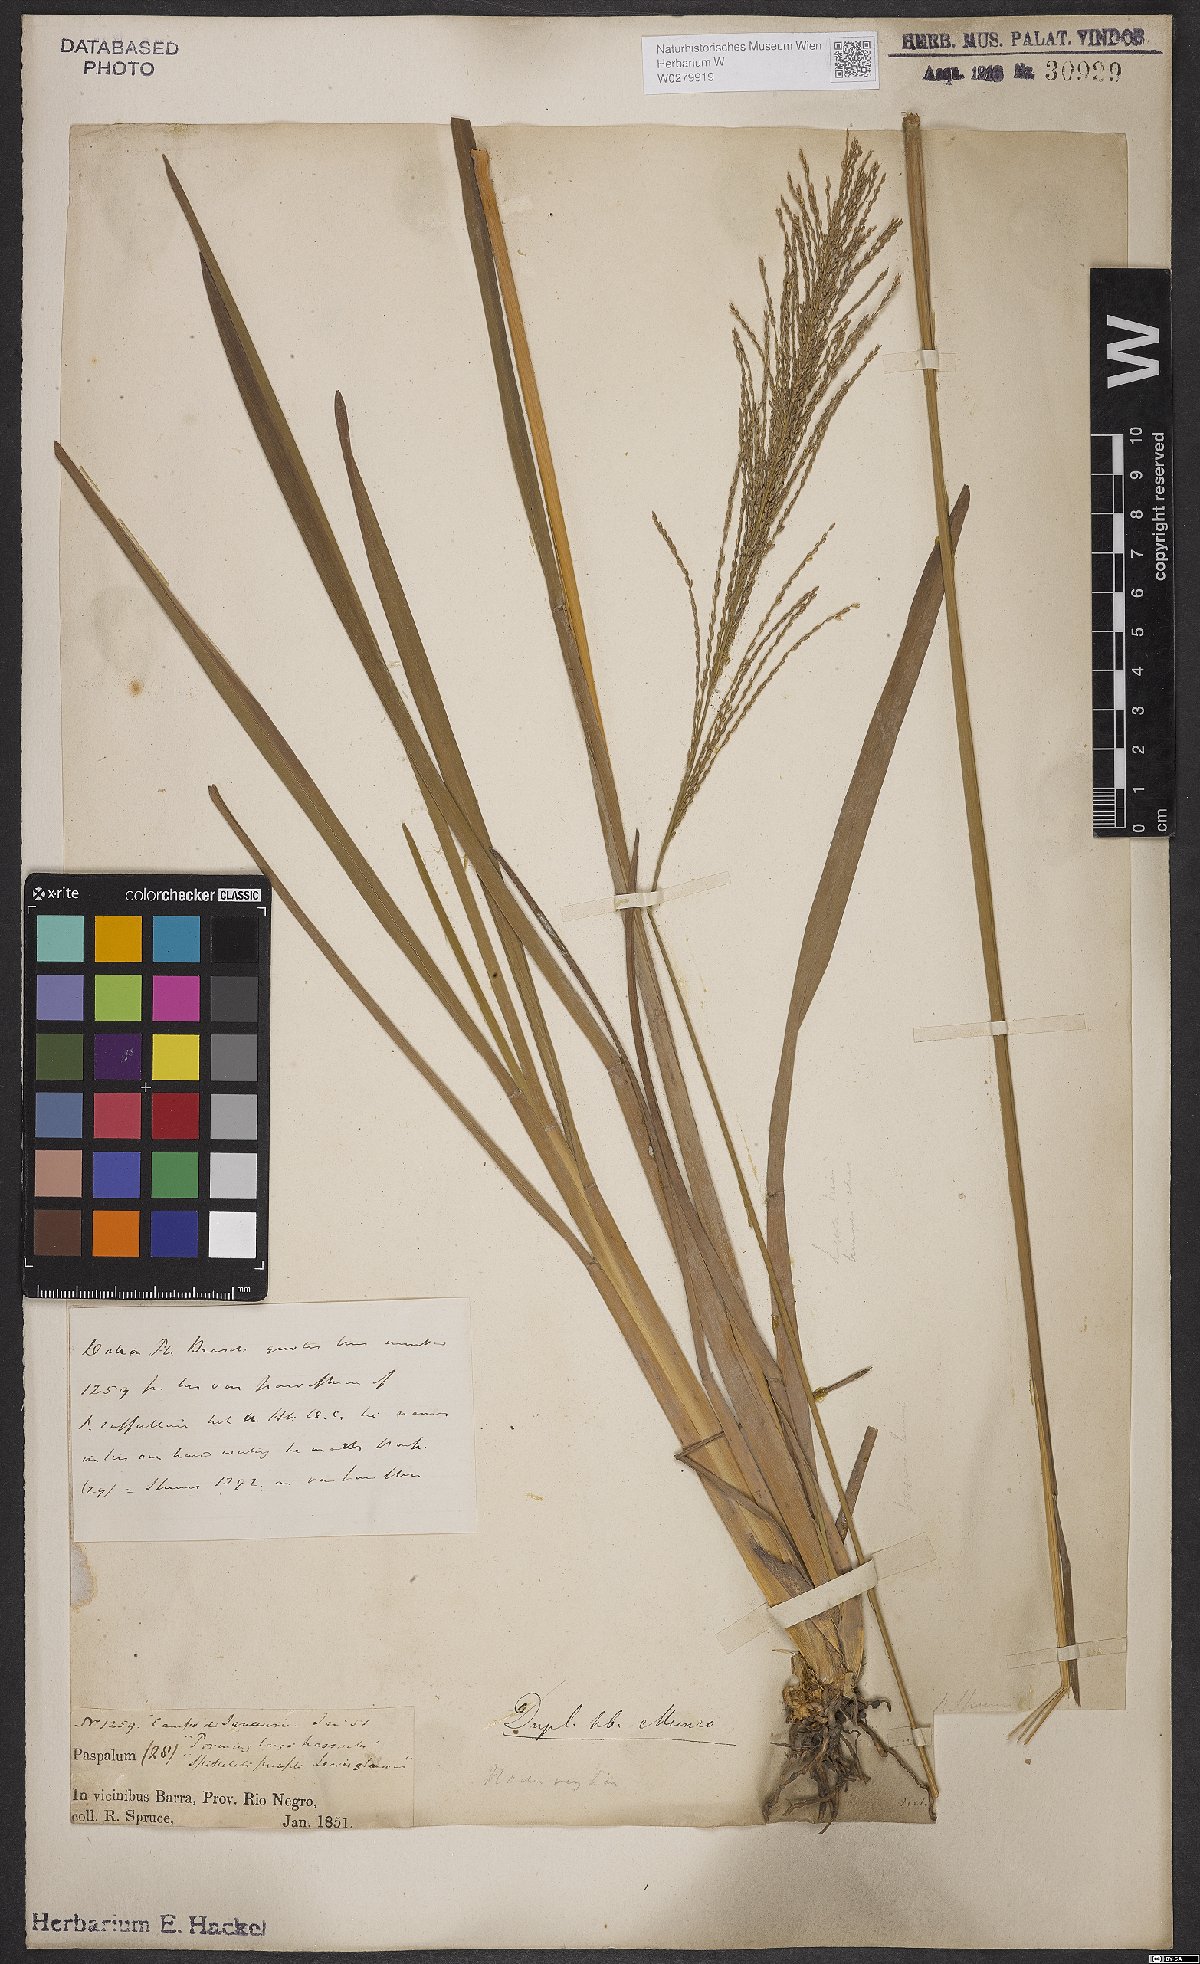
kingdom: Plantae
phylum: Tracheophyta
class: Liliopsida
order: Poales
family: Poaceae
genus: Axonopus
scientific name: Axonopus scoparius
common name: Imperial grass
